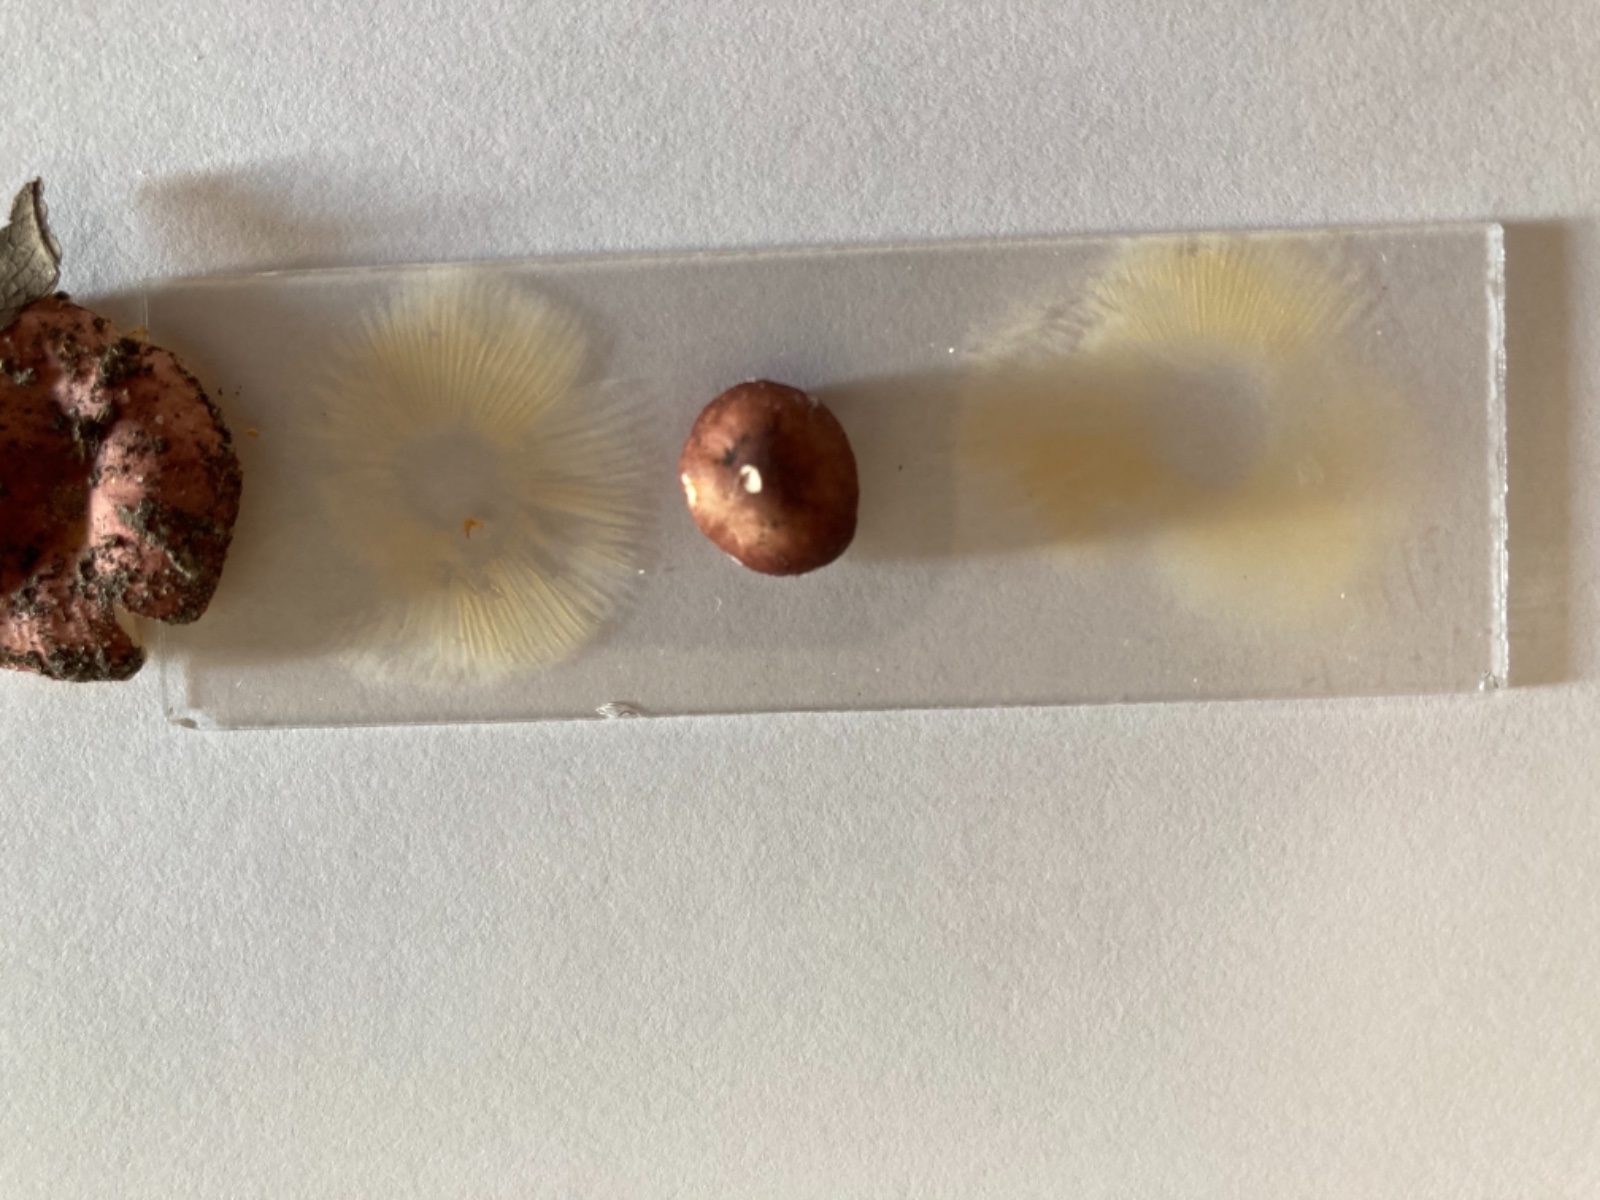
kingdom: Fungi
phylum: Basidiomycota
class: Agaricomycetes
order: Russulales
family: Russulaceae
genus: Russula
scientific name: Russula odorata
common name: duft-skørhat
